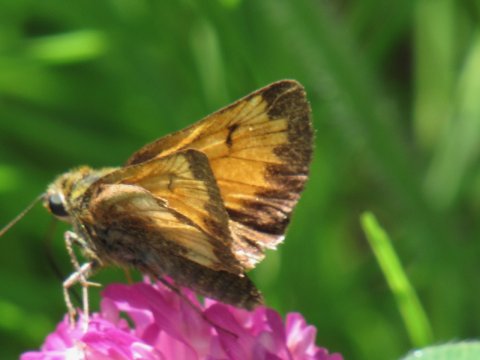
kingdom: Animalia
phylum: Arthropoda
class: Insecta
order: Lepidoptera
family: Hesperiidae
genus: Lon
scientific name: Lon hobomok
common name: Hobomok Skipper
